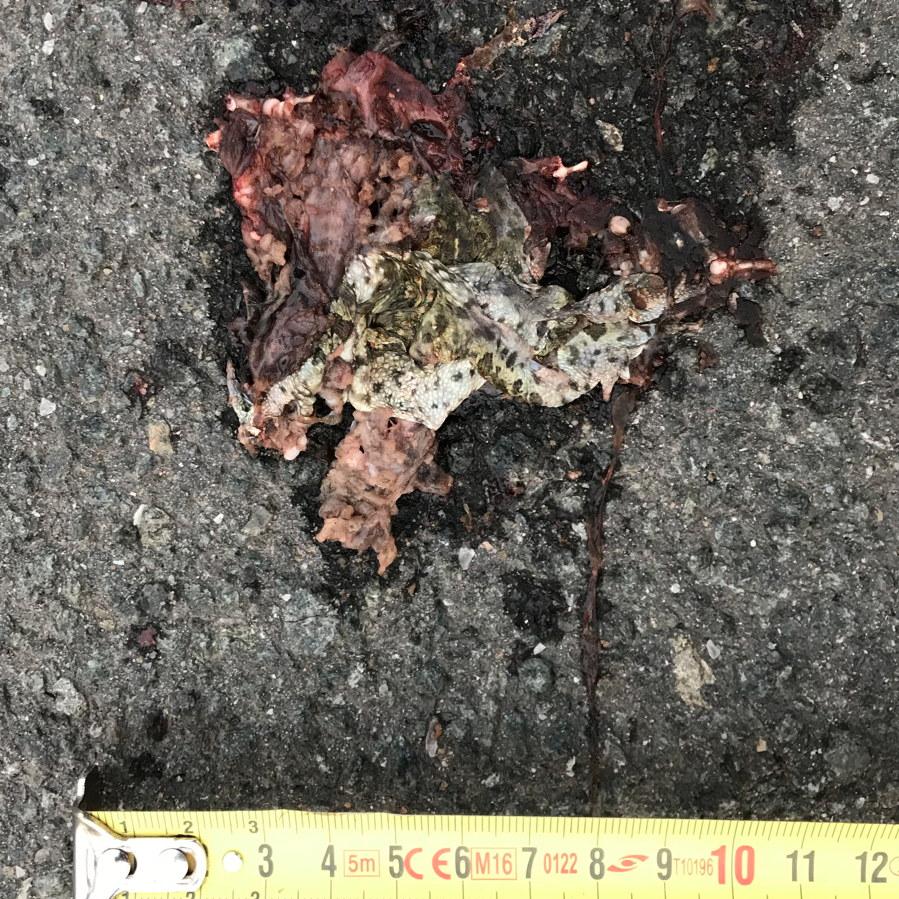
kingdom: Animalia
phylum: Chordata
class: Amphibia
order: Anura
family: Bufonidae
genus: Epidalea
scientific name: Epidalea calamita
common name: Natterjack toad
